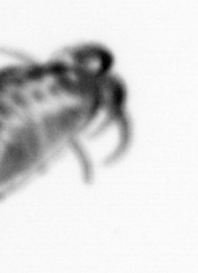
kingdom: Animalia
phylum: Annelida
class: Polychaeta
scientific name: Polychaeta
